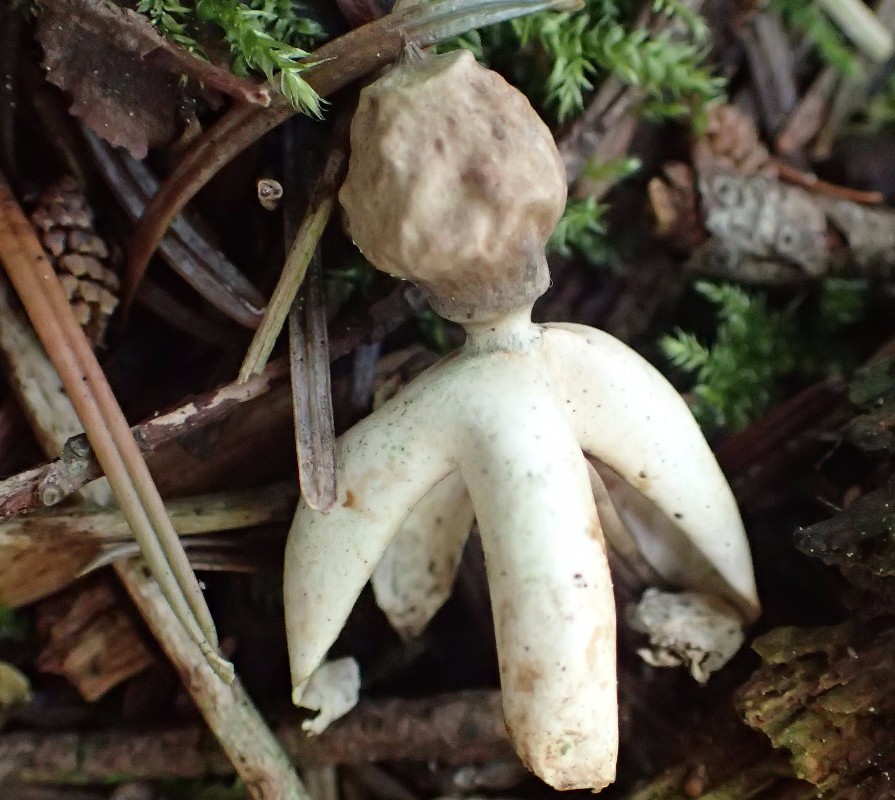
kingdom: Fungi
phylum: Basidiomycota
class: Agaricomycetes
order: Geastrales
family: Geastraceae
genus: Geastrum
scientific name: Geastrum quadrifidum
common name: firfliget stjernebold
